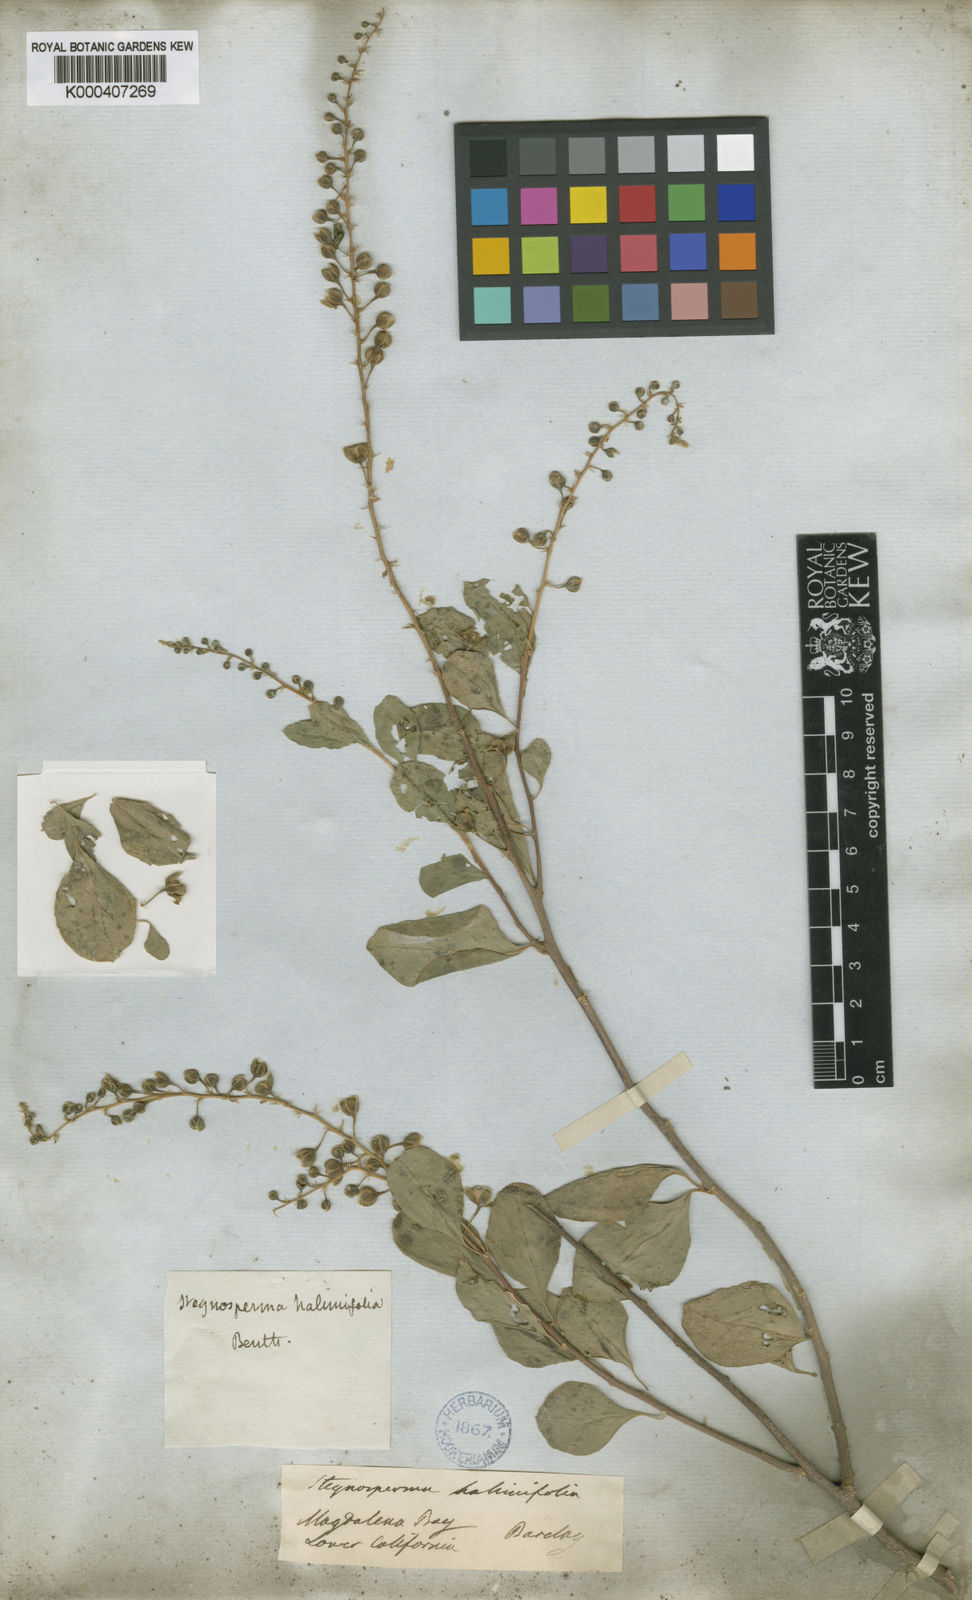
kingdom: Plantae
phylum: Tracheophyta
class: Magnoliopsida
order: Caryophyllales
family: Stegnospermataceae
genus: Stegnosperma
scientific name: Stegnosperma halimifolium
